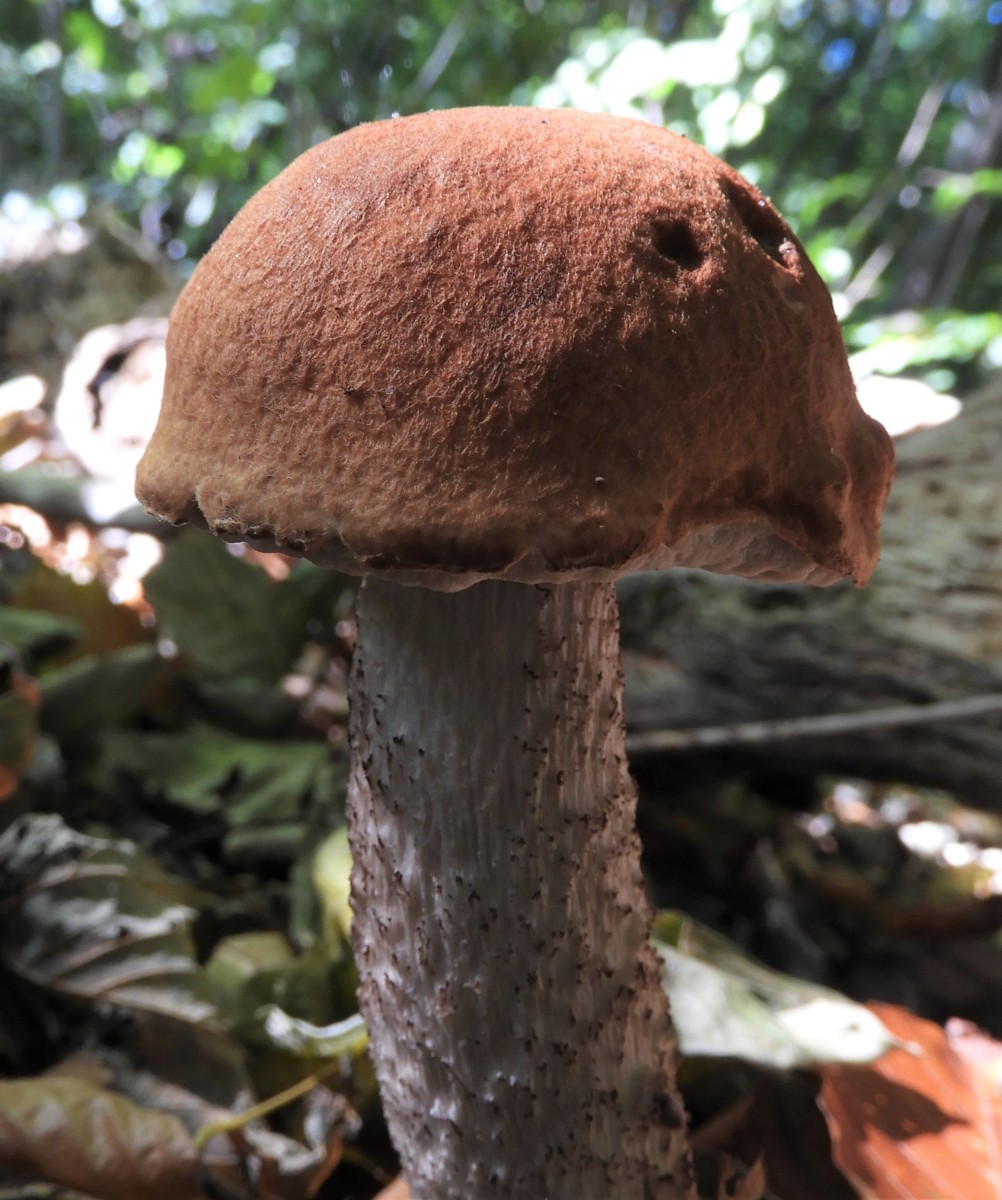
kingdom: Fungi
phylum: Basidiomycota
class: Agaricomycetes
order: Boletales
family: Boletaceae
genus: Leccinum
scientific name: Leccinum aurantiacum
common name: rustrød skælrørhat
